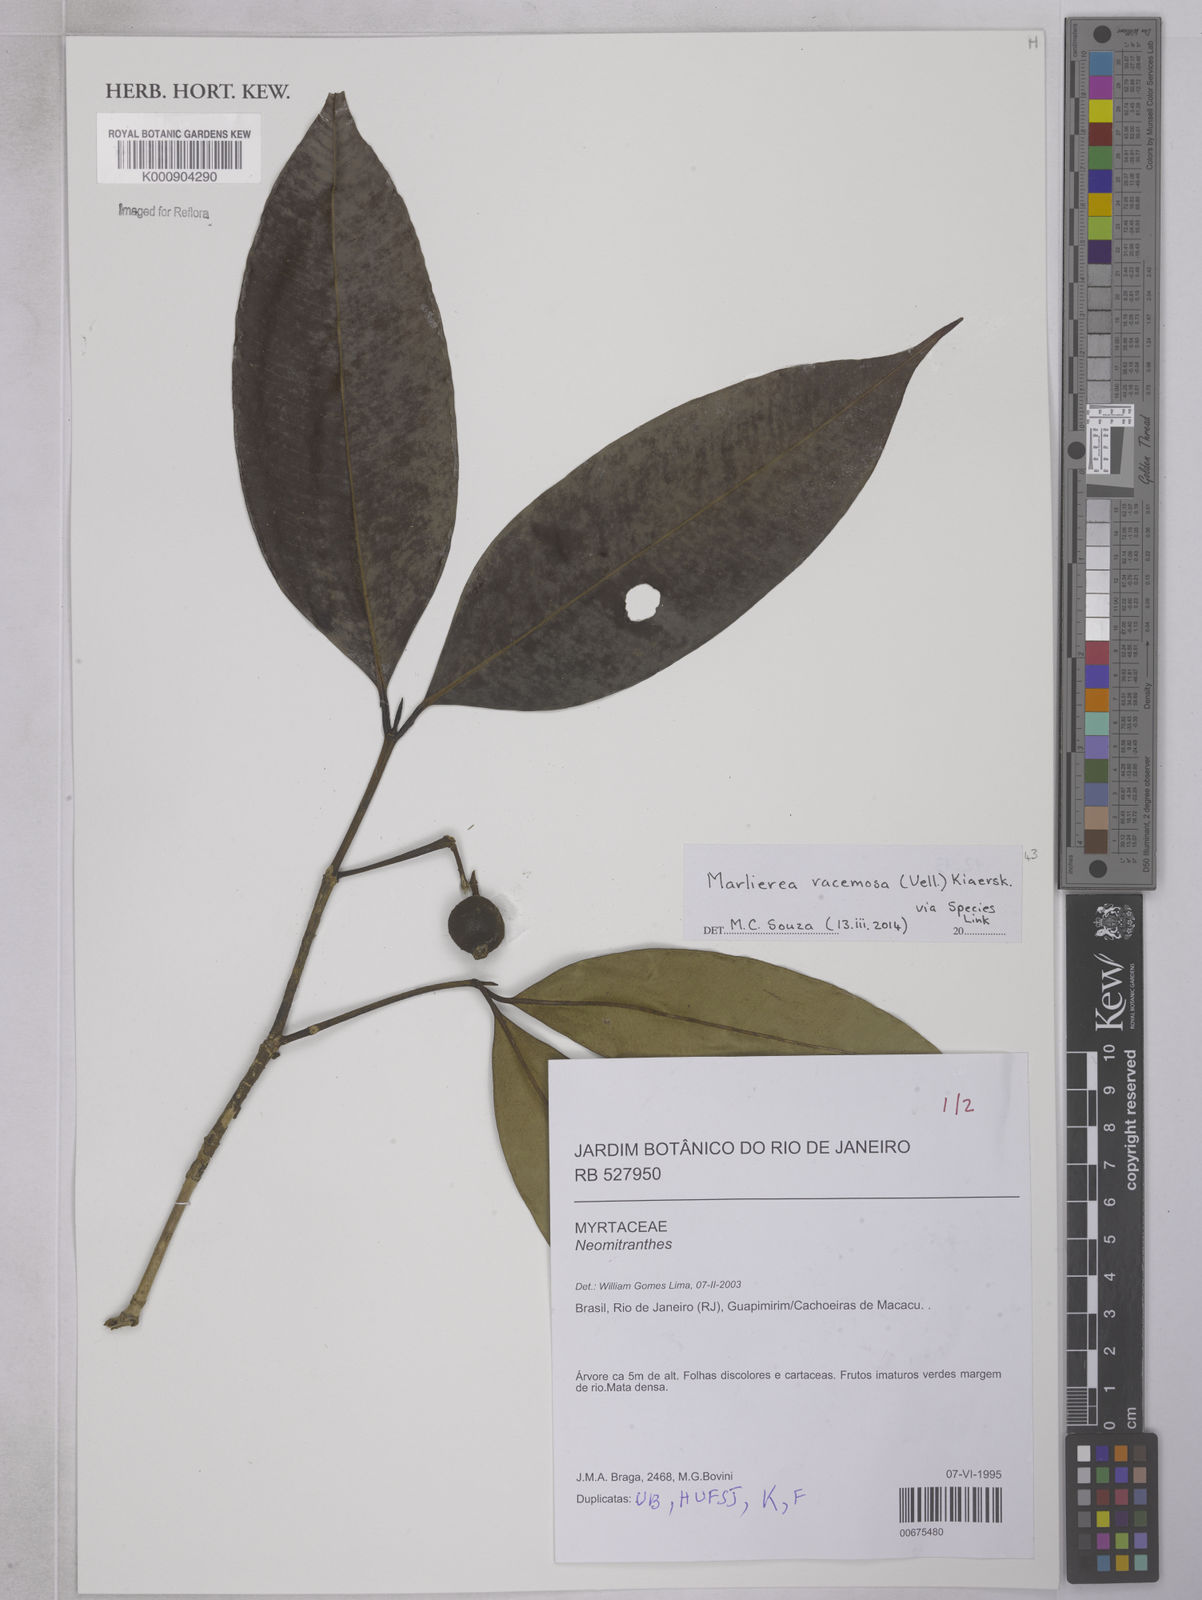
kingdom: Plantae
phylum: Tracheophyta
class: Magnoliopsida
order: Myrtales
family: Myrtaceae
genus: Myrcia
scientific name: Myrcia vellozoi
